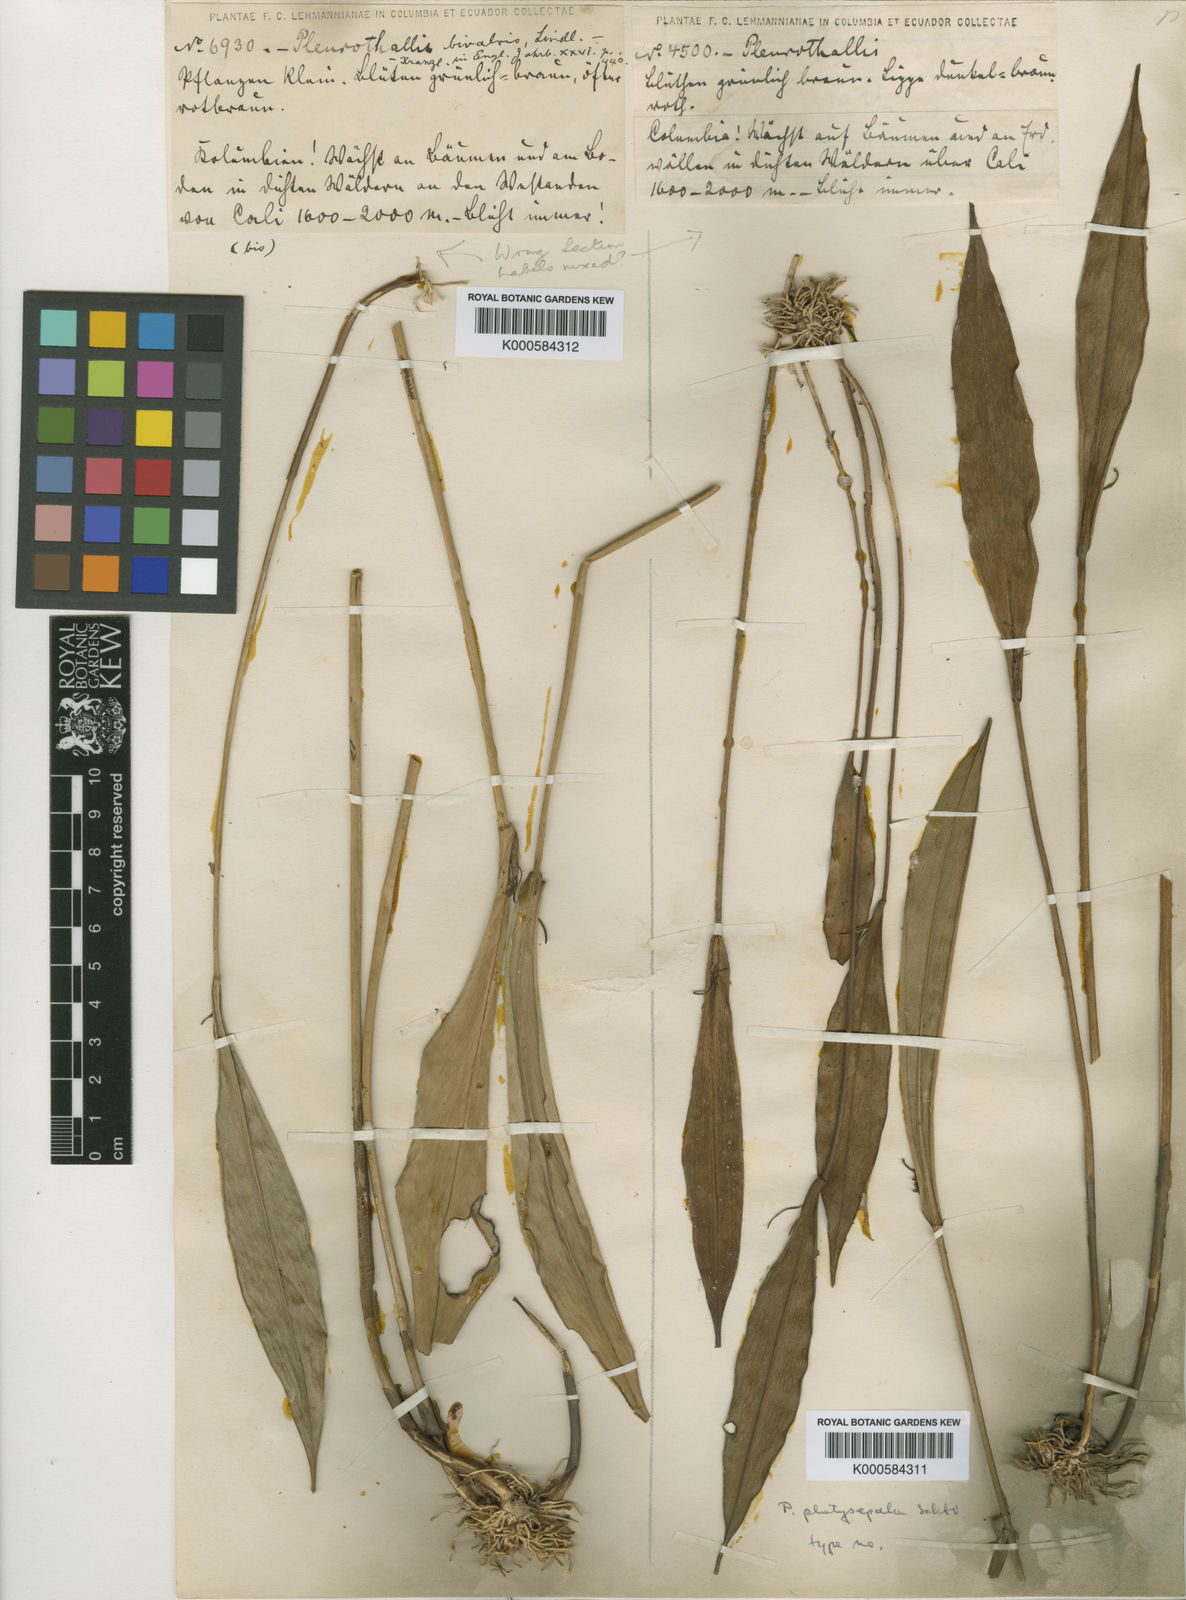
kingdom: Plantae
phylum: Tracheophyta
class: Liliopsida
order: Asparagales
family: Orchidaceae
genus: Pleurothallis
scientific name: Pleurothallis platysepala
